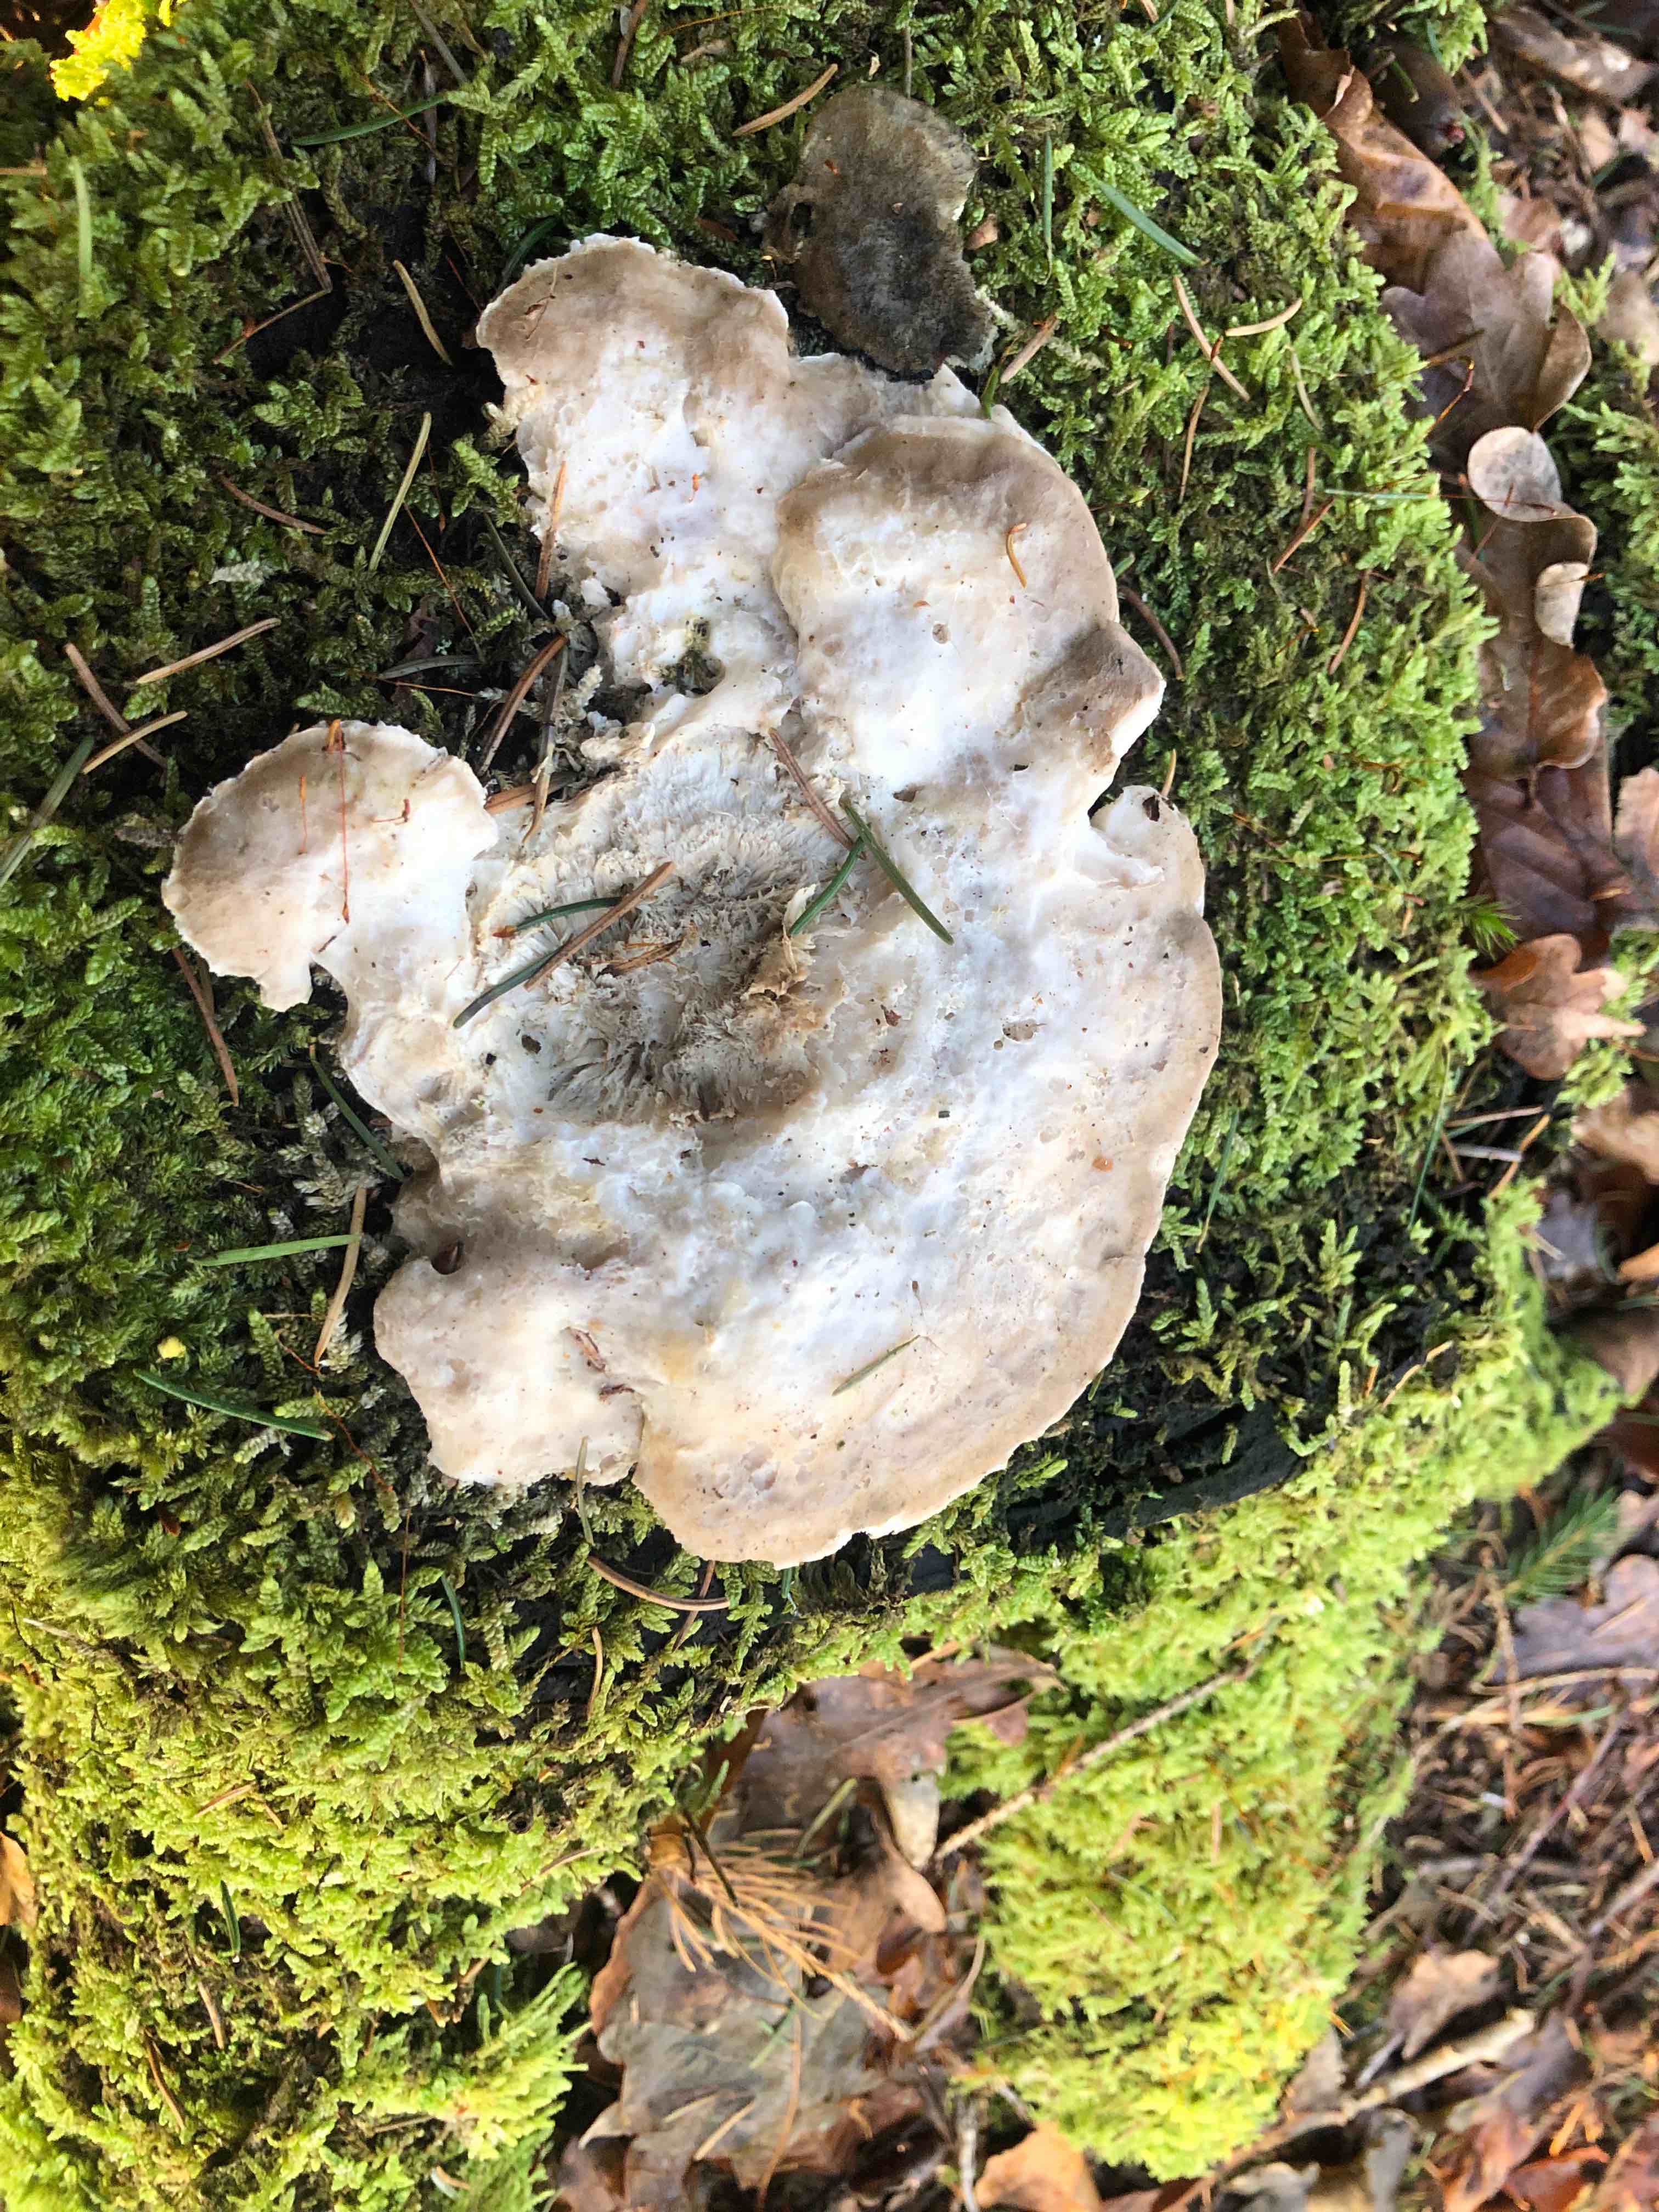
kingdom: Fungi
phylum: Basidiomycota
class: Agaricomycetes
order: Polyporales
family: Incrustoporiaceae
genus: Tyromyces
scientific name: Tyromyces chioneus
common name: stor blødporesvamp
